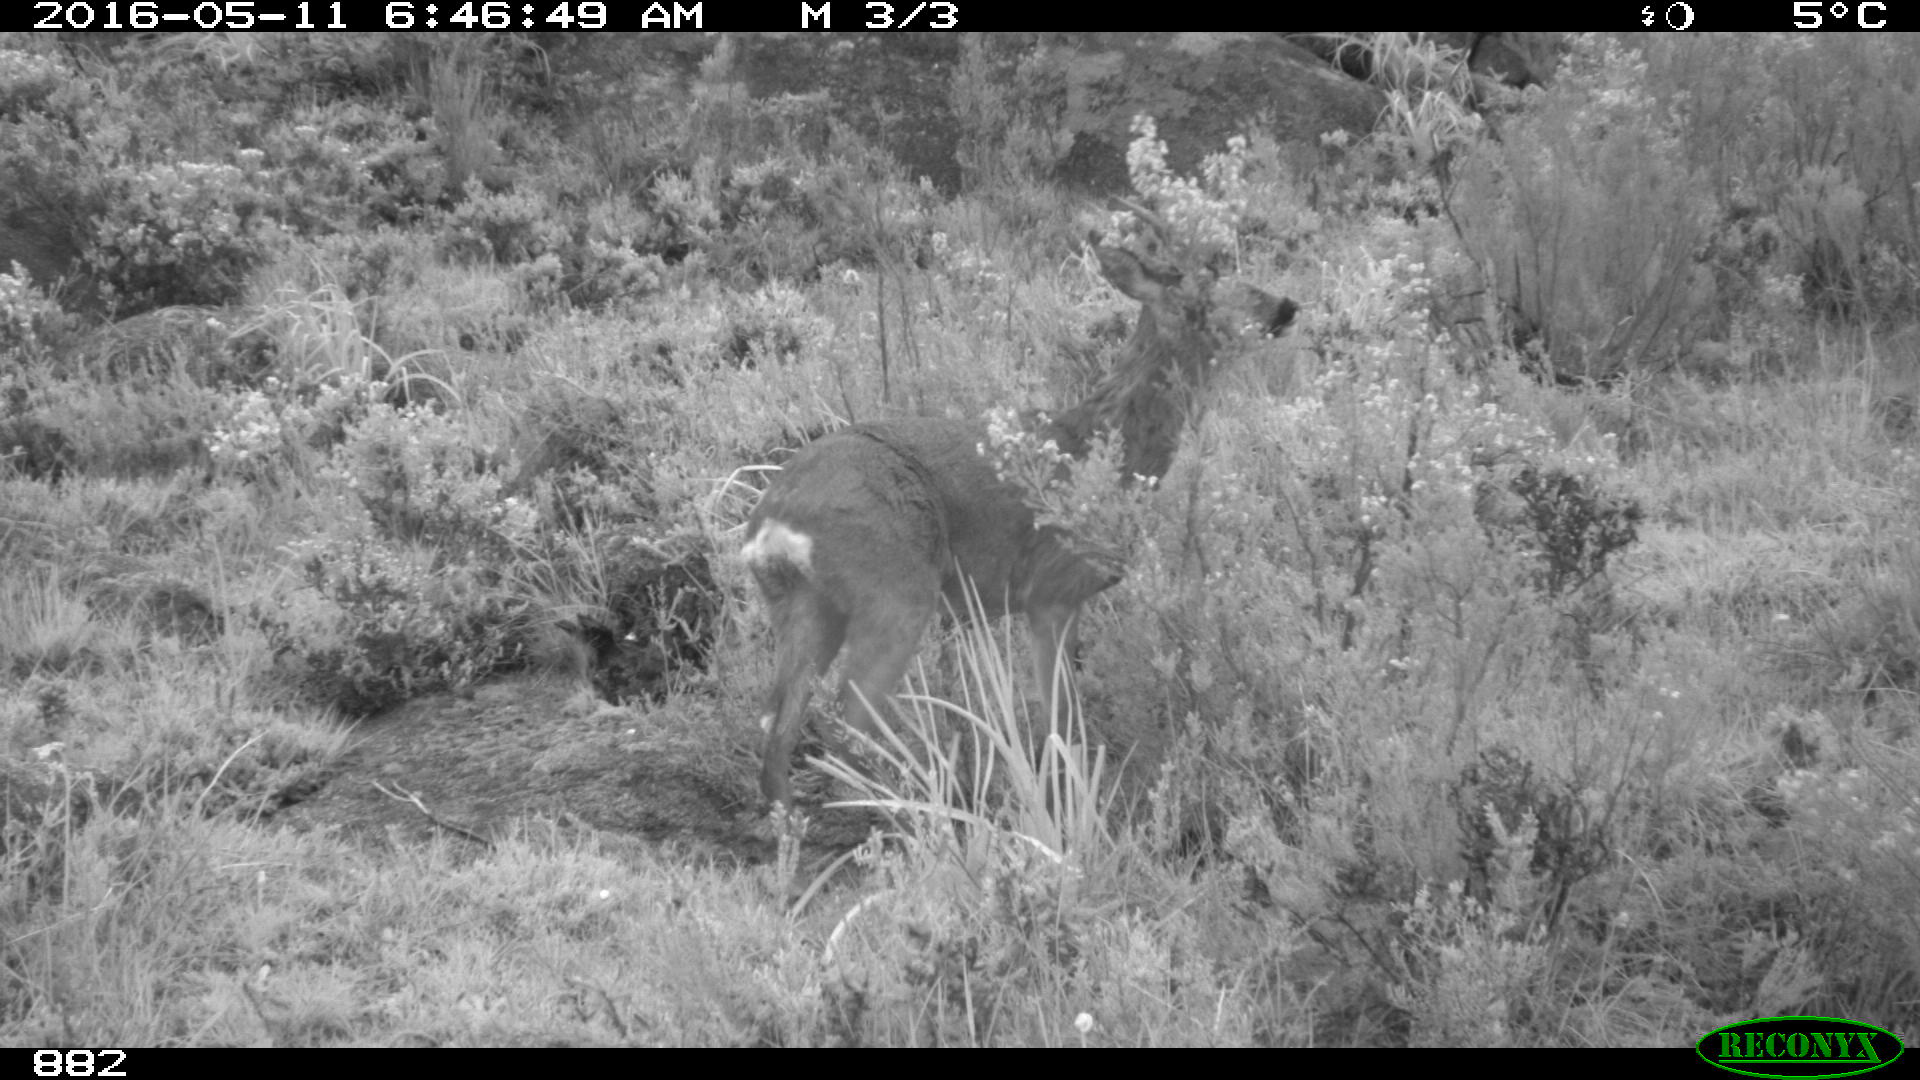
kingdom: Animalia
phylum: Chordata
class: Mammalia
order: Artiodactyla
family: Cervidae
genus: Capreolus
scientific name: Capreolus capreolus
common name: Western roe deer
